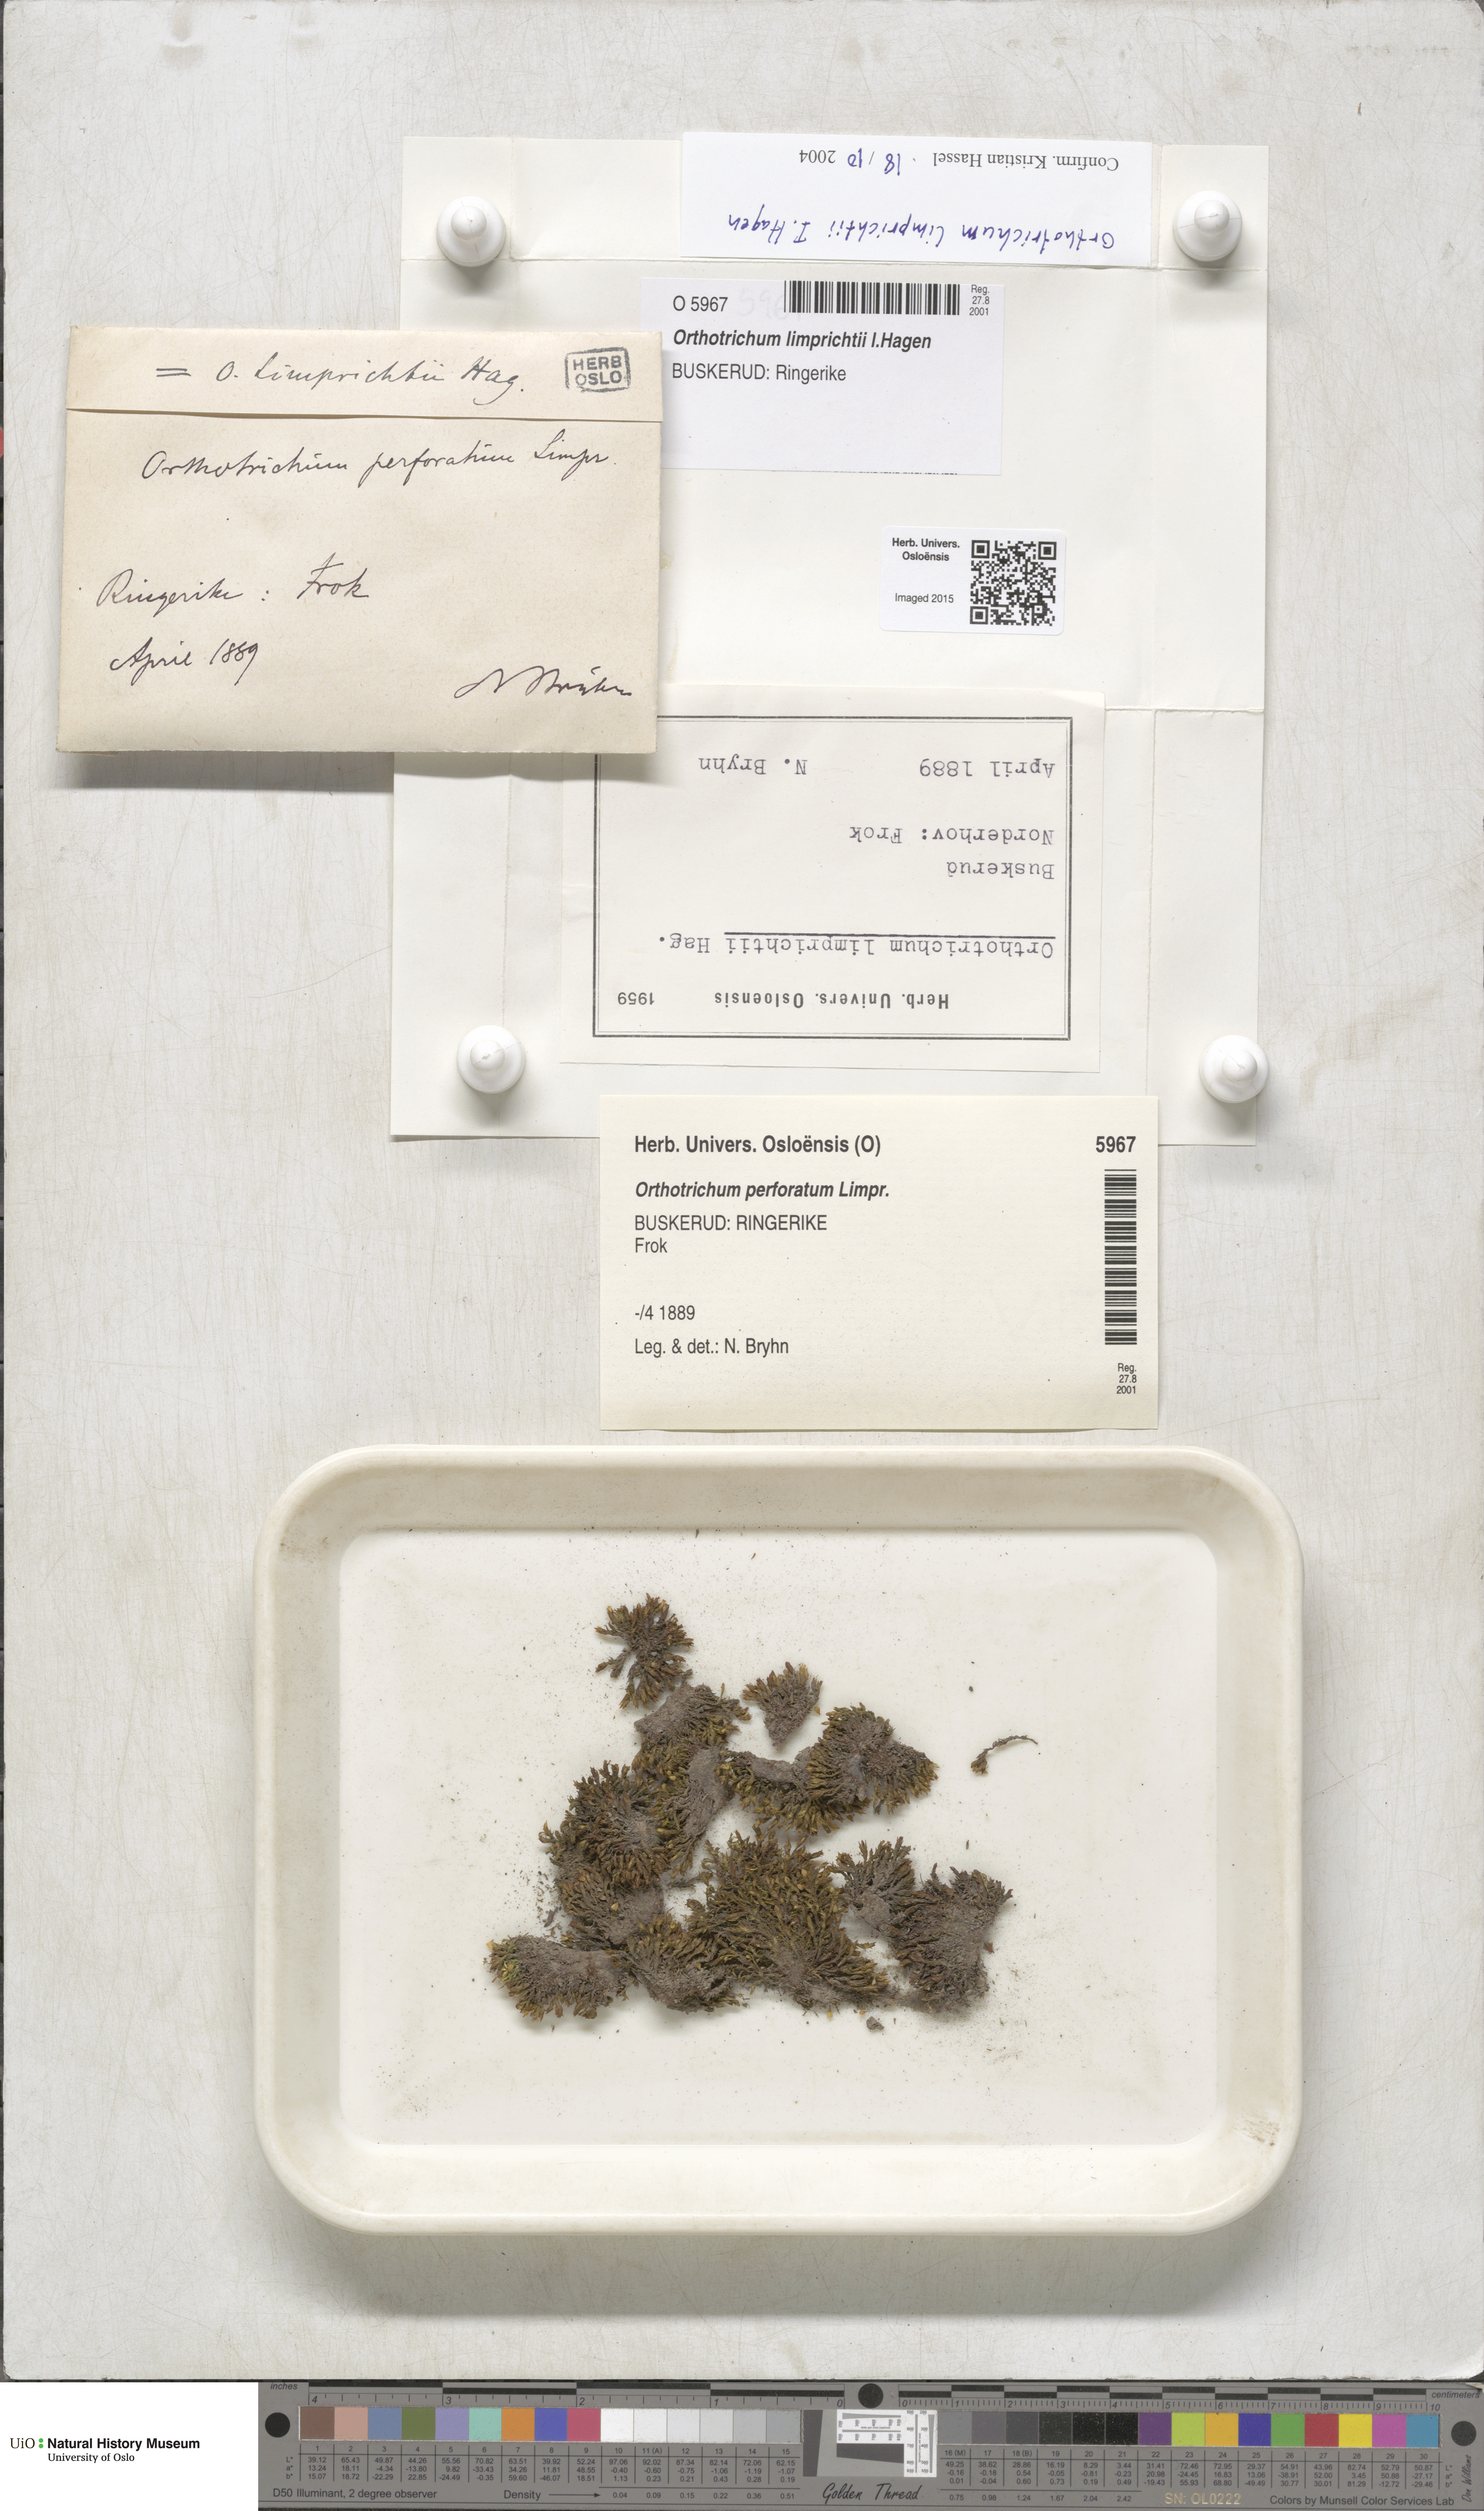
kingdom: Plantae
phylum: Bryophyta
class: Bryopsida
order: Orthotrichales
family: Orthotrichaceae
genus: Orthotrichum
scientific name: Orthotrichum cupulatum
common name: Hooded bristle-moss
